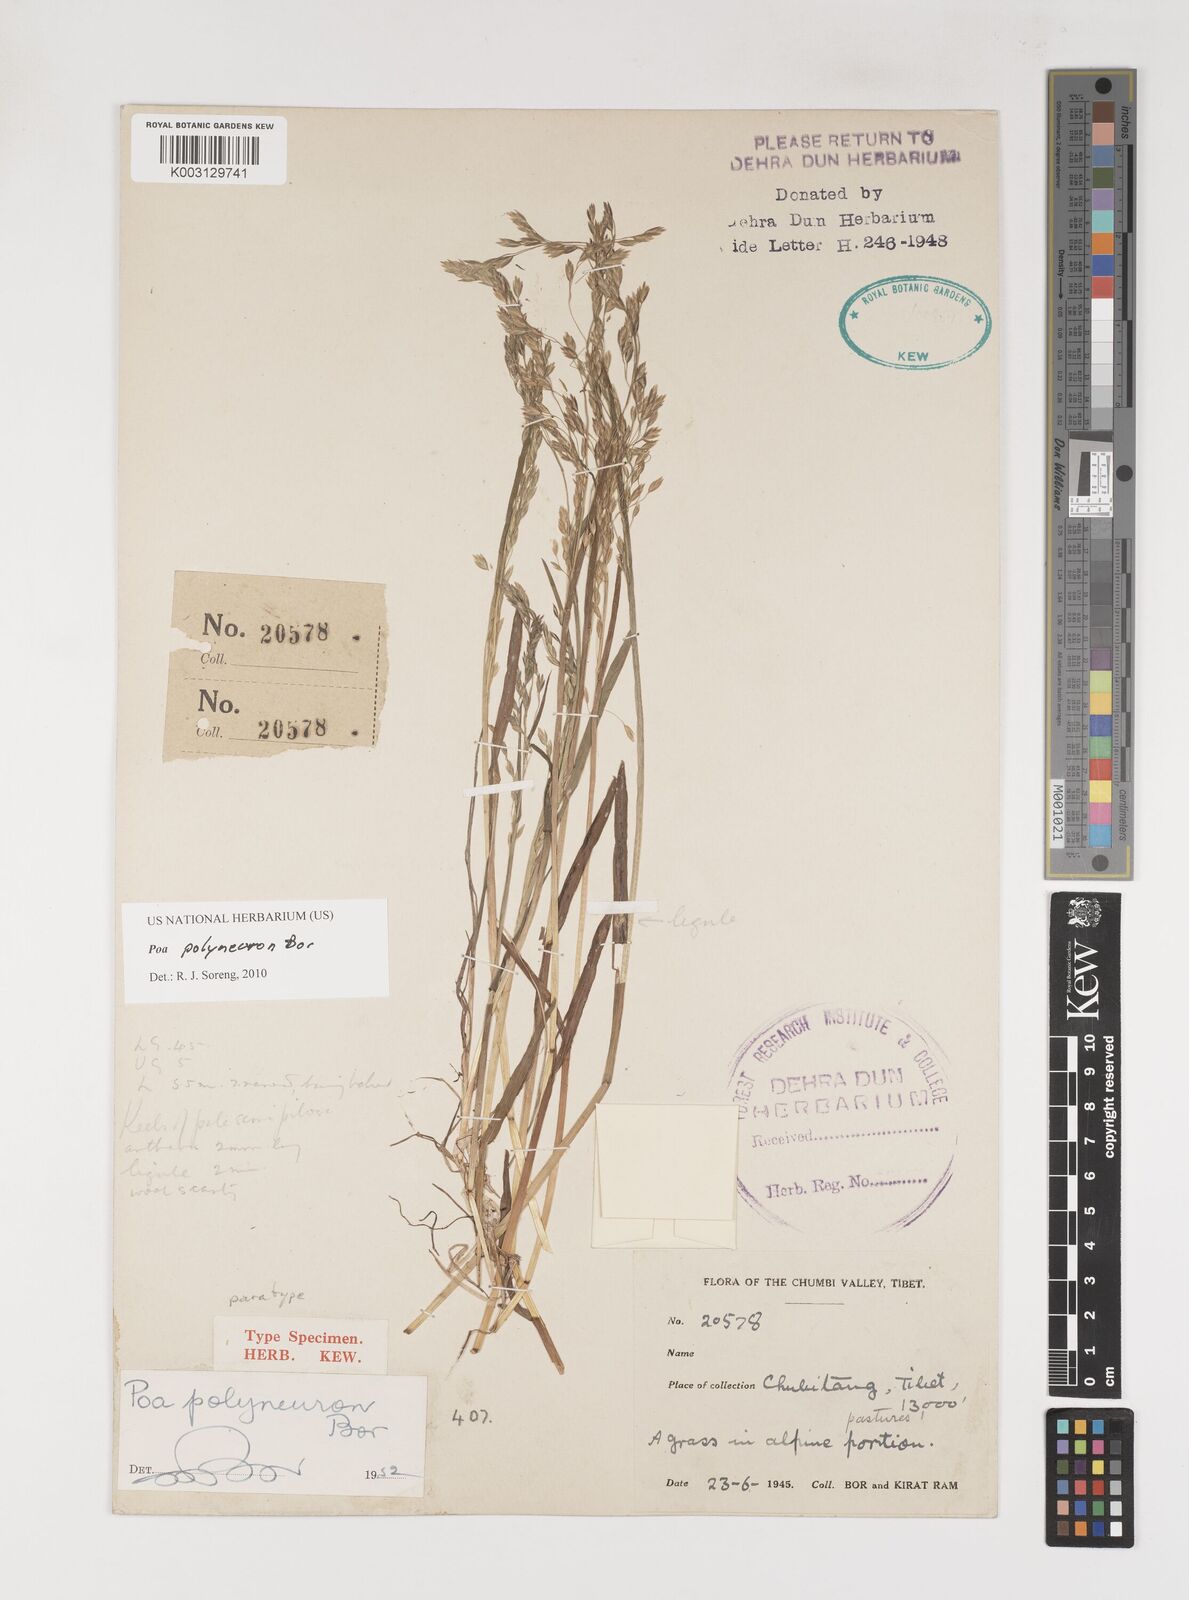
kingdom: Plantae
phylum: Tracheophyta
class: Liliopsida
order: Poales
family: Poaceae
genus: Poa
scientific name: Poa polyneura
